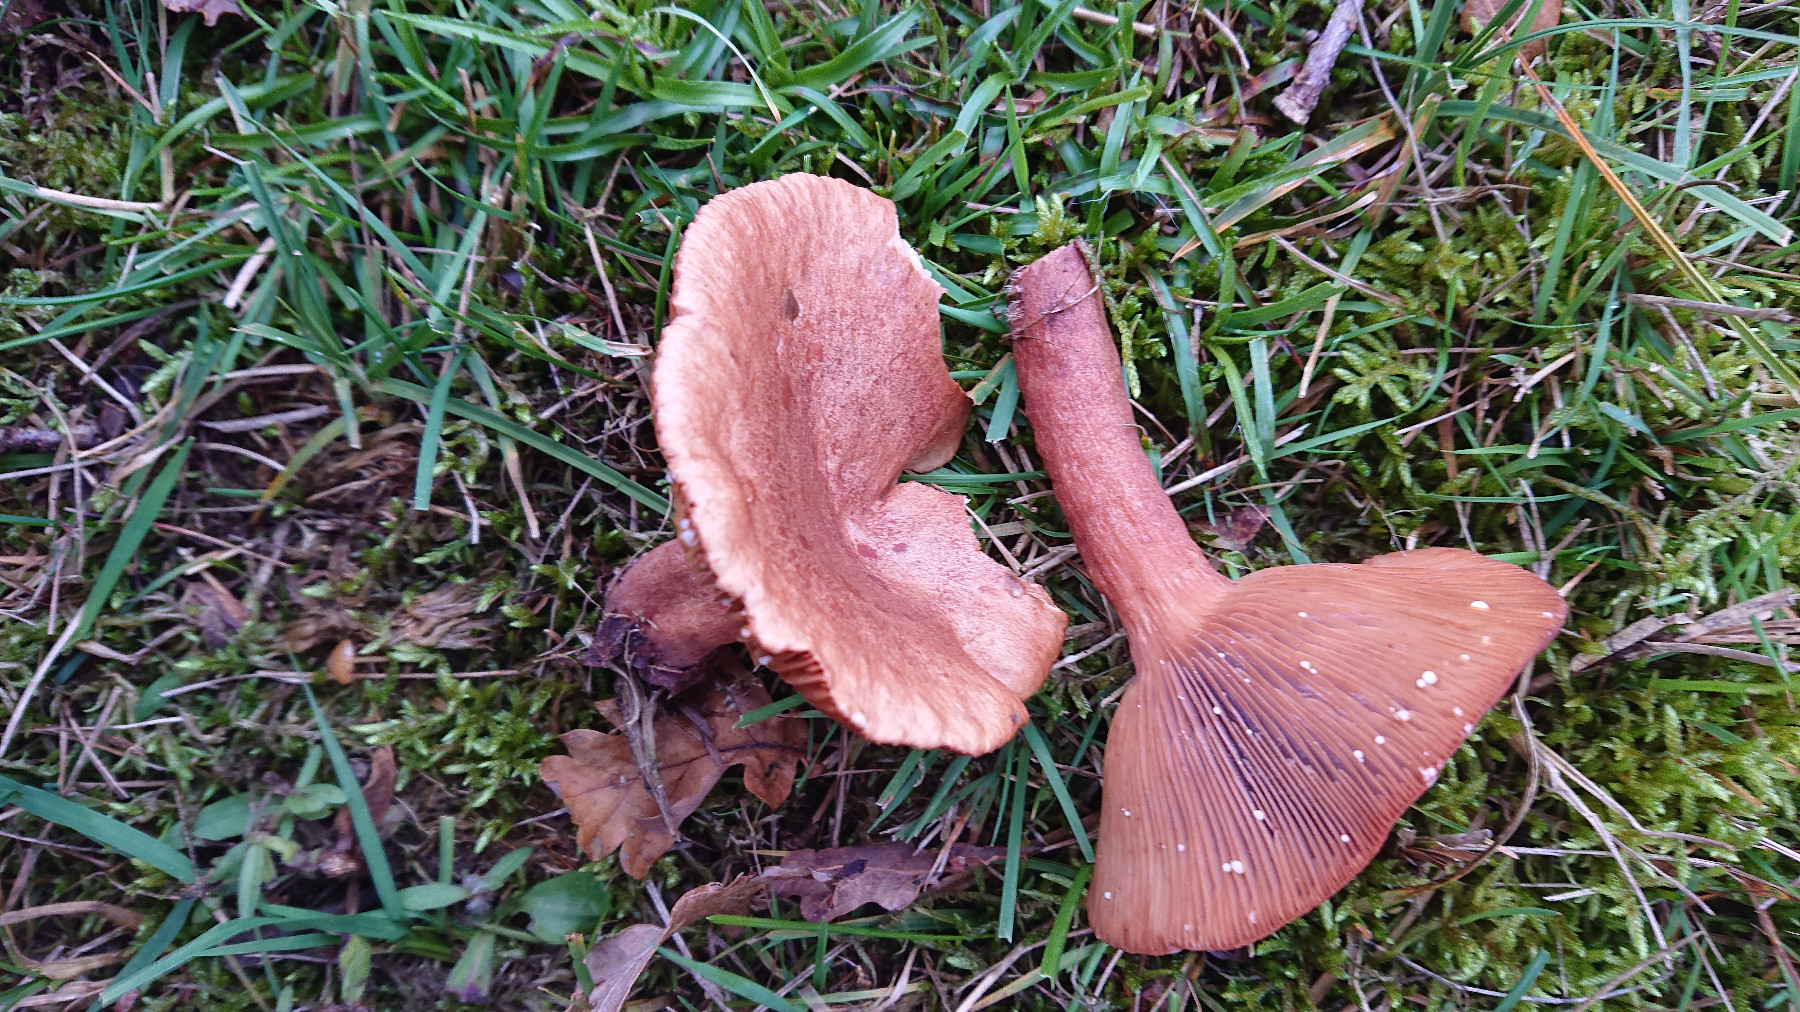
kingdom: Fungi
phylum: Basidiomycota
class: Agaricomycetes
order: Russulales
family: Russulaceae
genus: Lactarius
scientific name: Lactarius quietus
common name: ege-mælkehat
